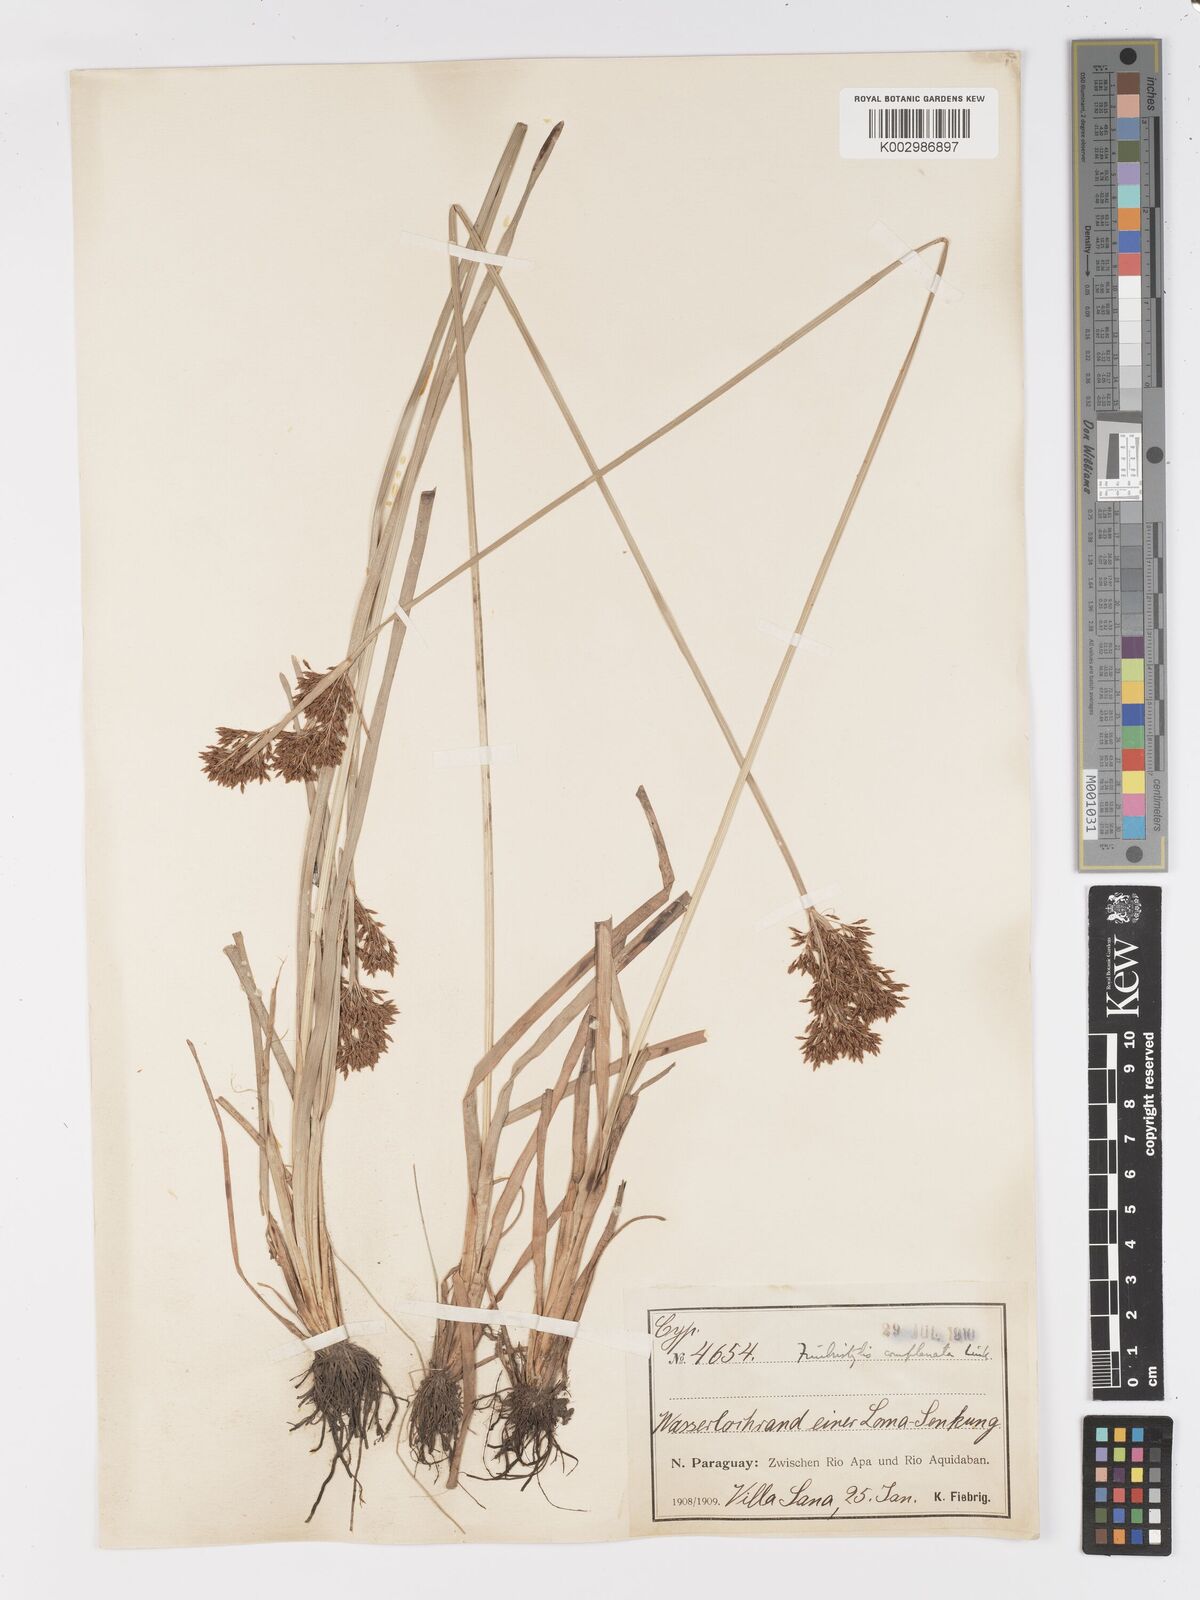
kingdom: Plantae
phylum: Tracheophyta
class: Liliopsida
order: Poales
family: Cyperaceae
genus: Fimbristylis
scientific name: Fimbristylis complanata
